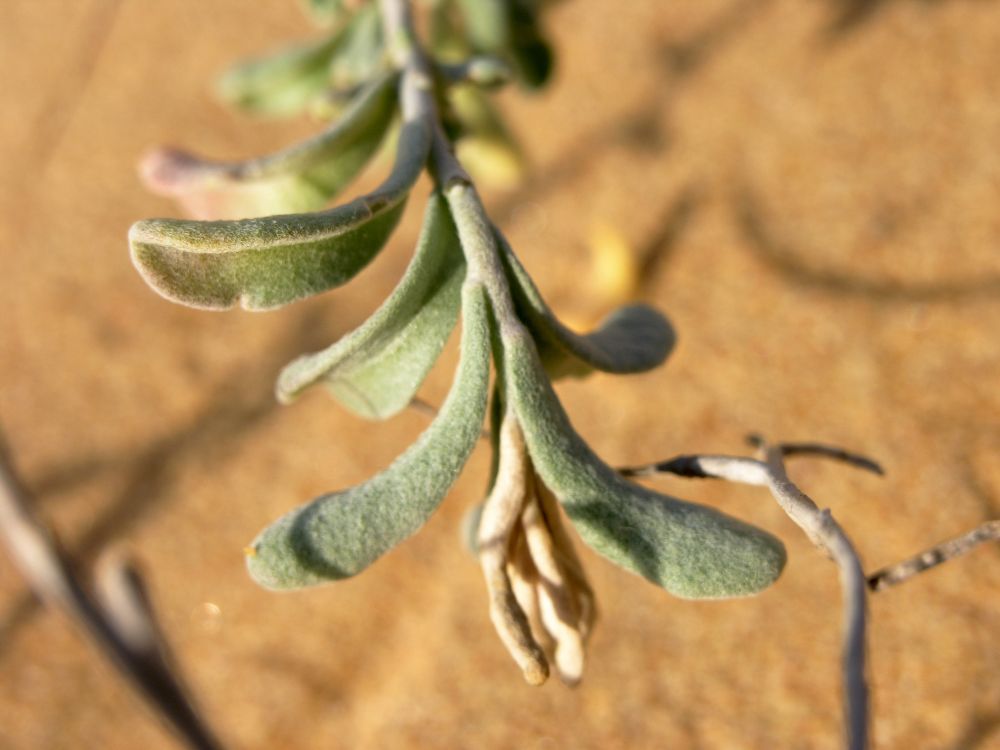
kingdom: Plantae
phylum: Tracheophyta
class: Magnoliopsida
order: Brassicales
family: Brassicaceae
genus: Marcuskochia
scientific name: Marcuskochia littorea
